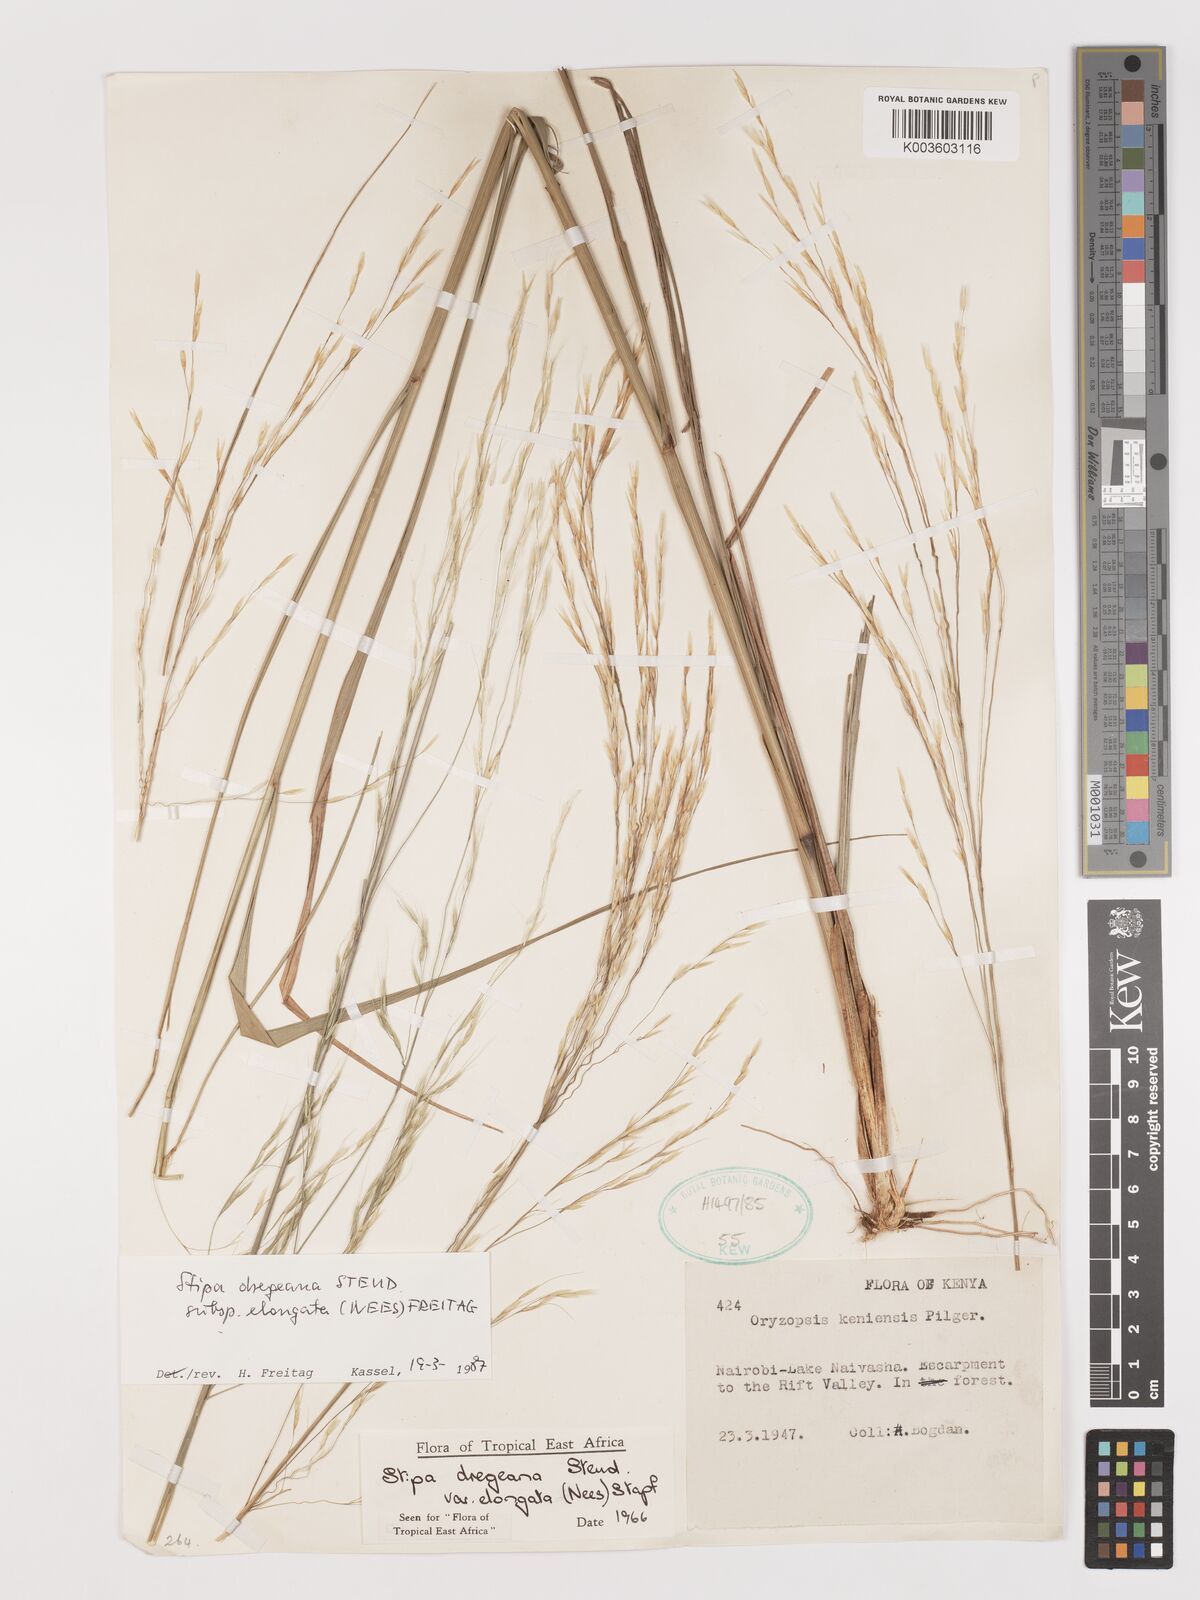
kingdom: Plantae
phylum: Tracheophyta
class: Liliopsida
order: Poales
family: Poaceae
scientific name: Poaceae
